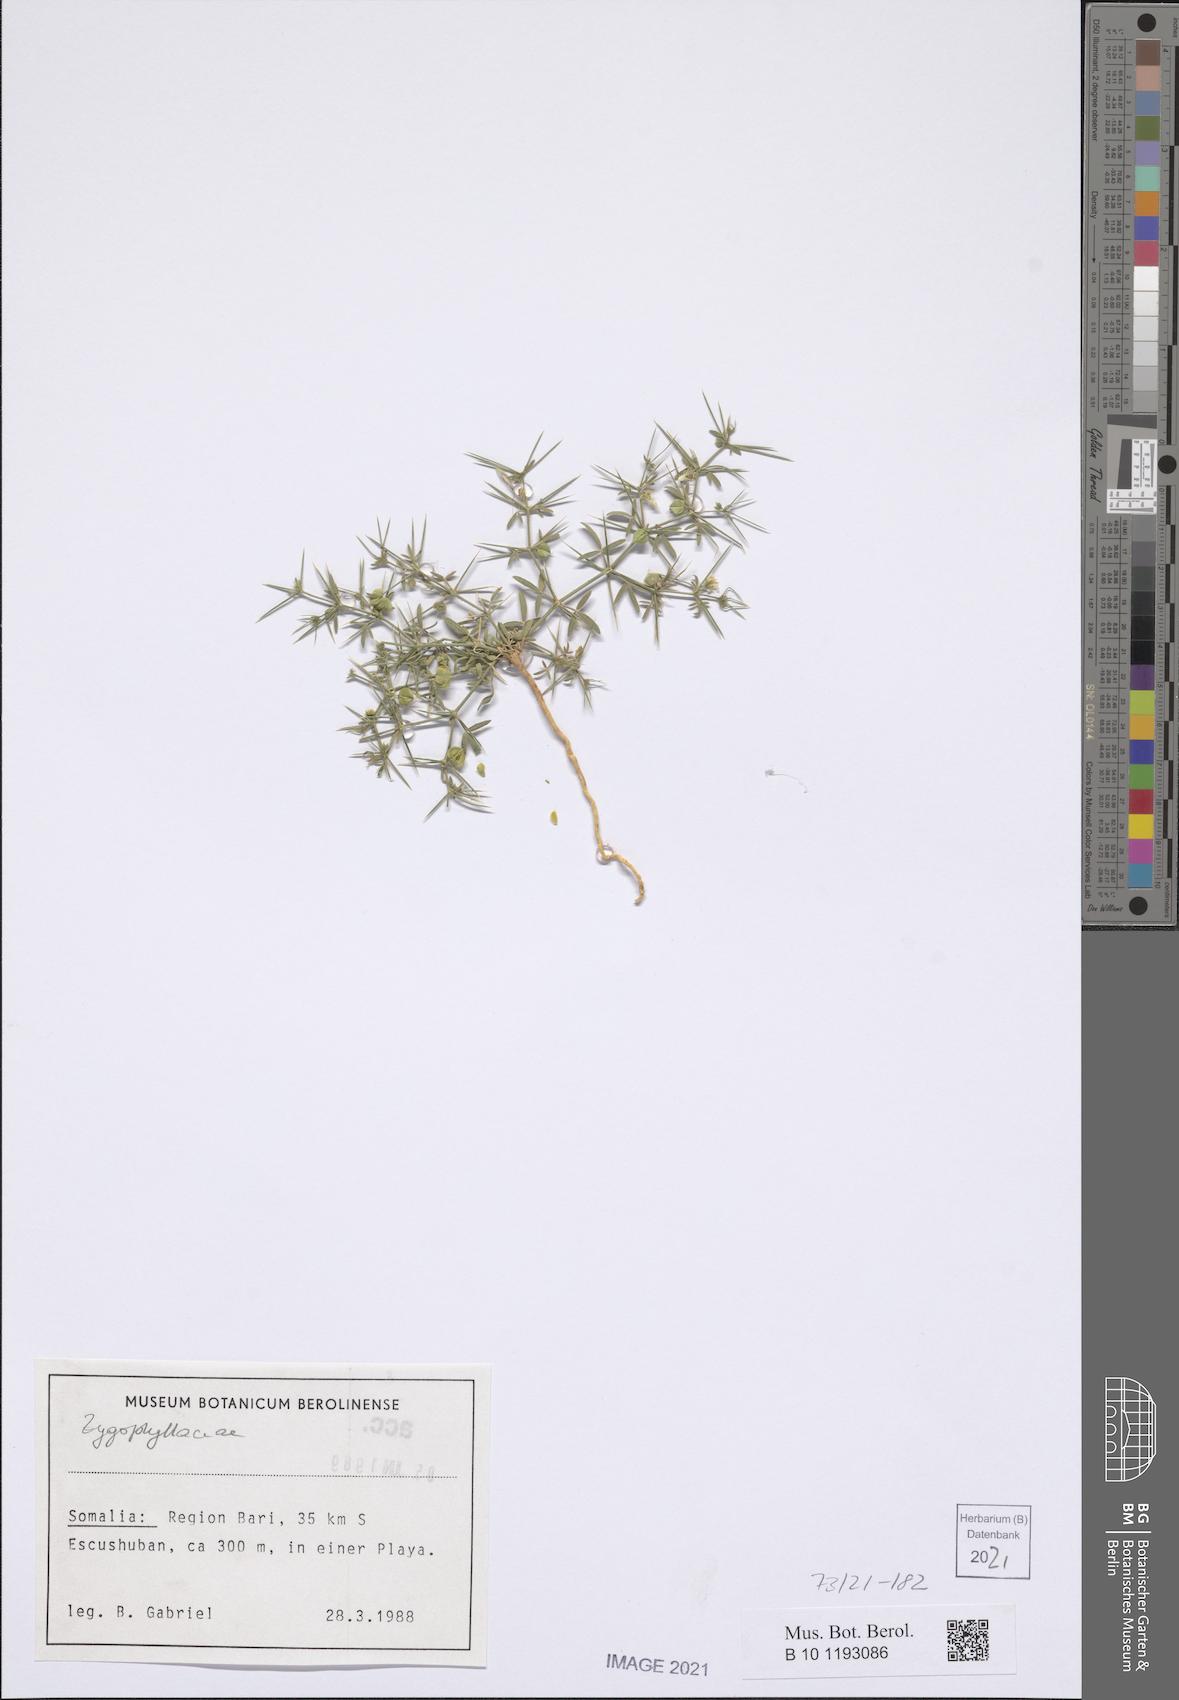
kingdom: Plantae
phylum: Tracheophyta
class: Magnoliopsida
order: Zygophyllales
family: Zygophyllaceae
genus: Fagonia
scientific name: Fagonia paulayana
